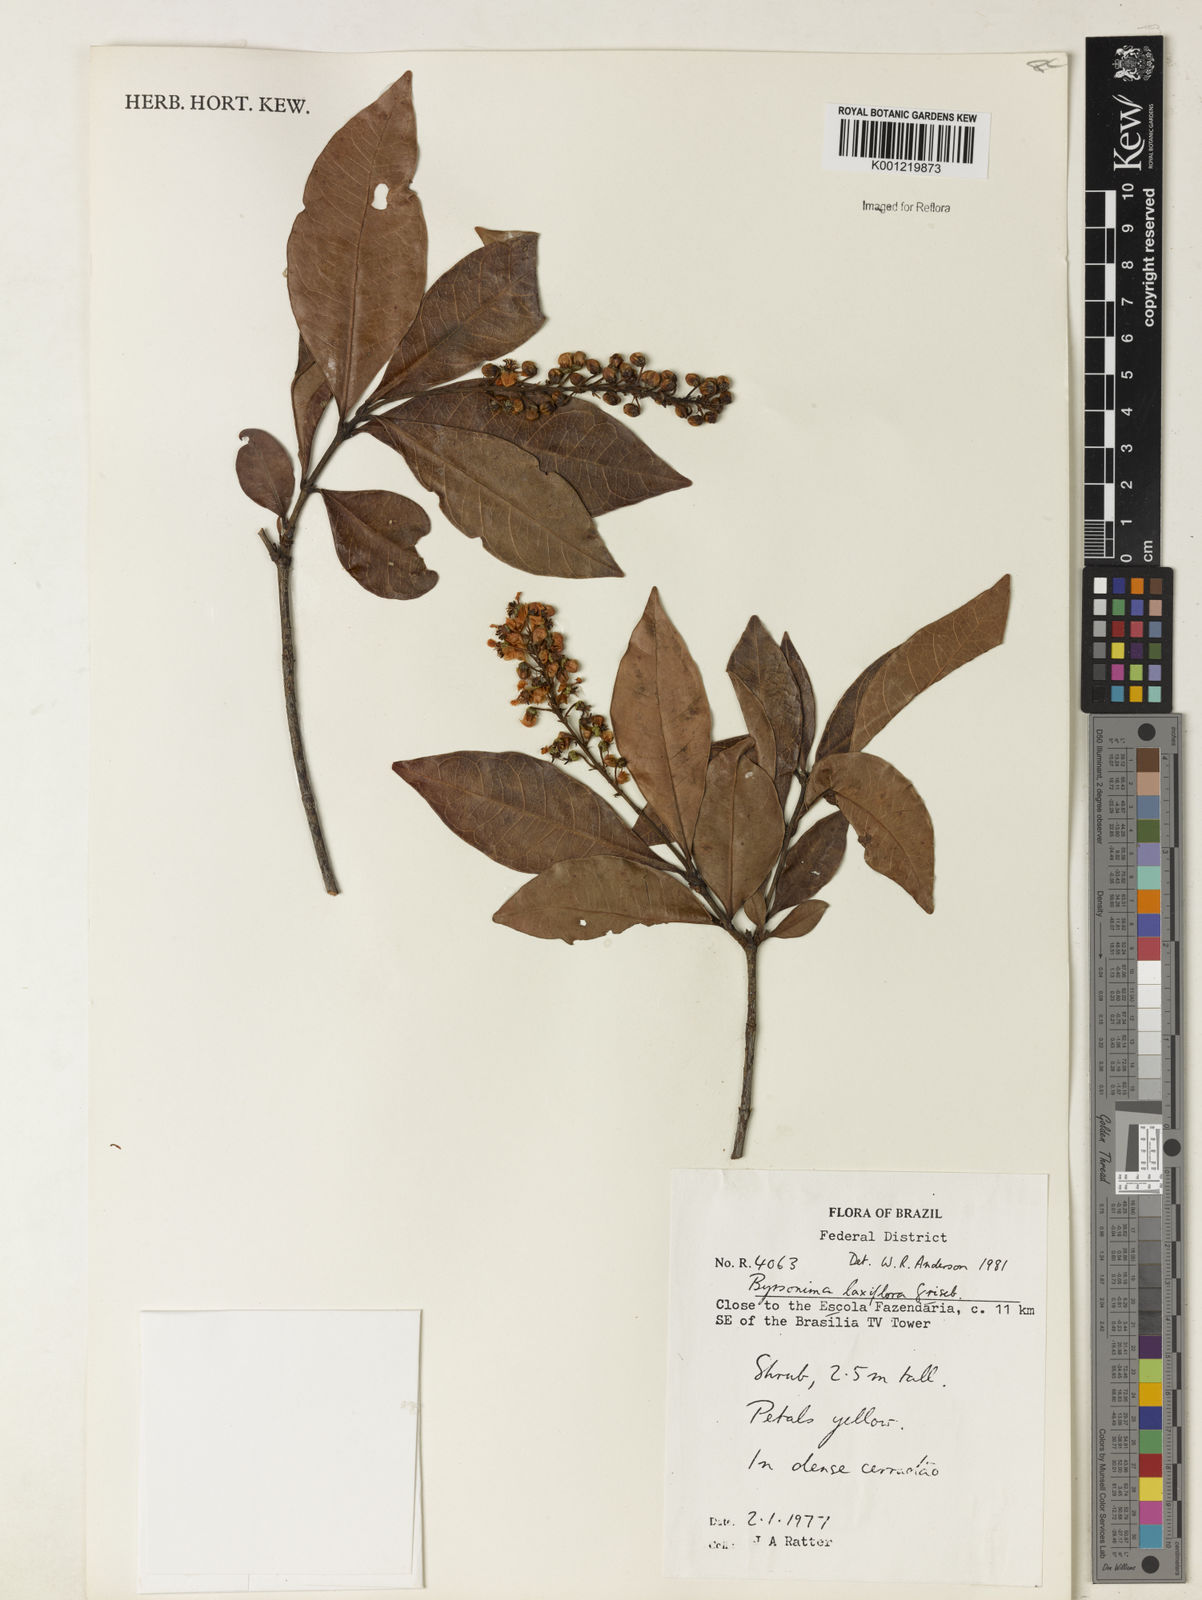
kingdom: Plantae
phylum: Tracheophyta
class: Magnoliopsida
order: Malpighiales
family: Malpighiaceae
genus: Byrsonima
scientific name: Byrsonima laxiflora
